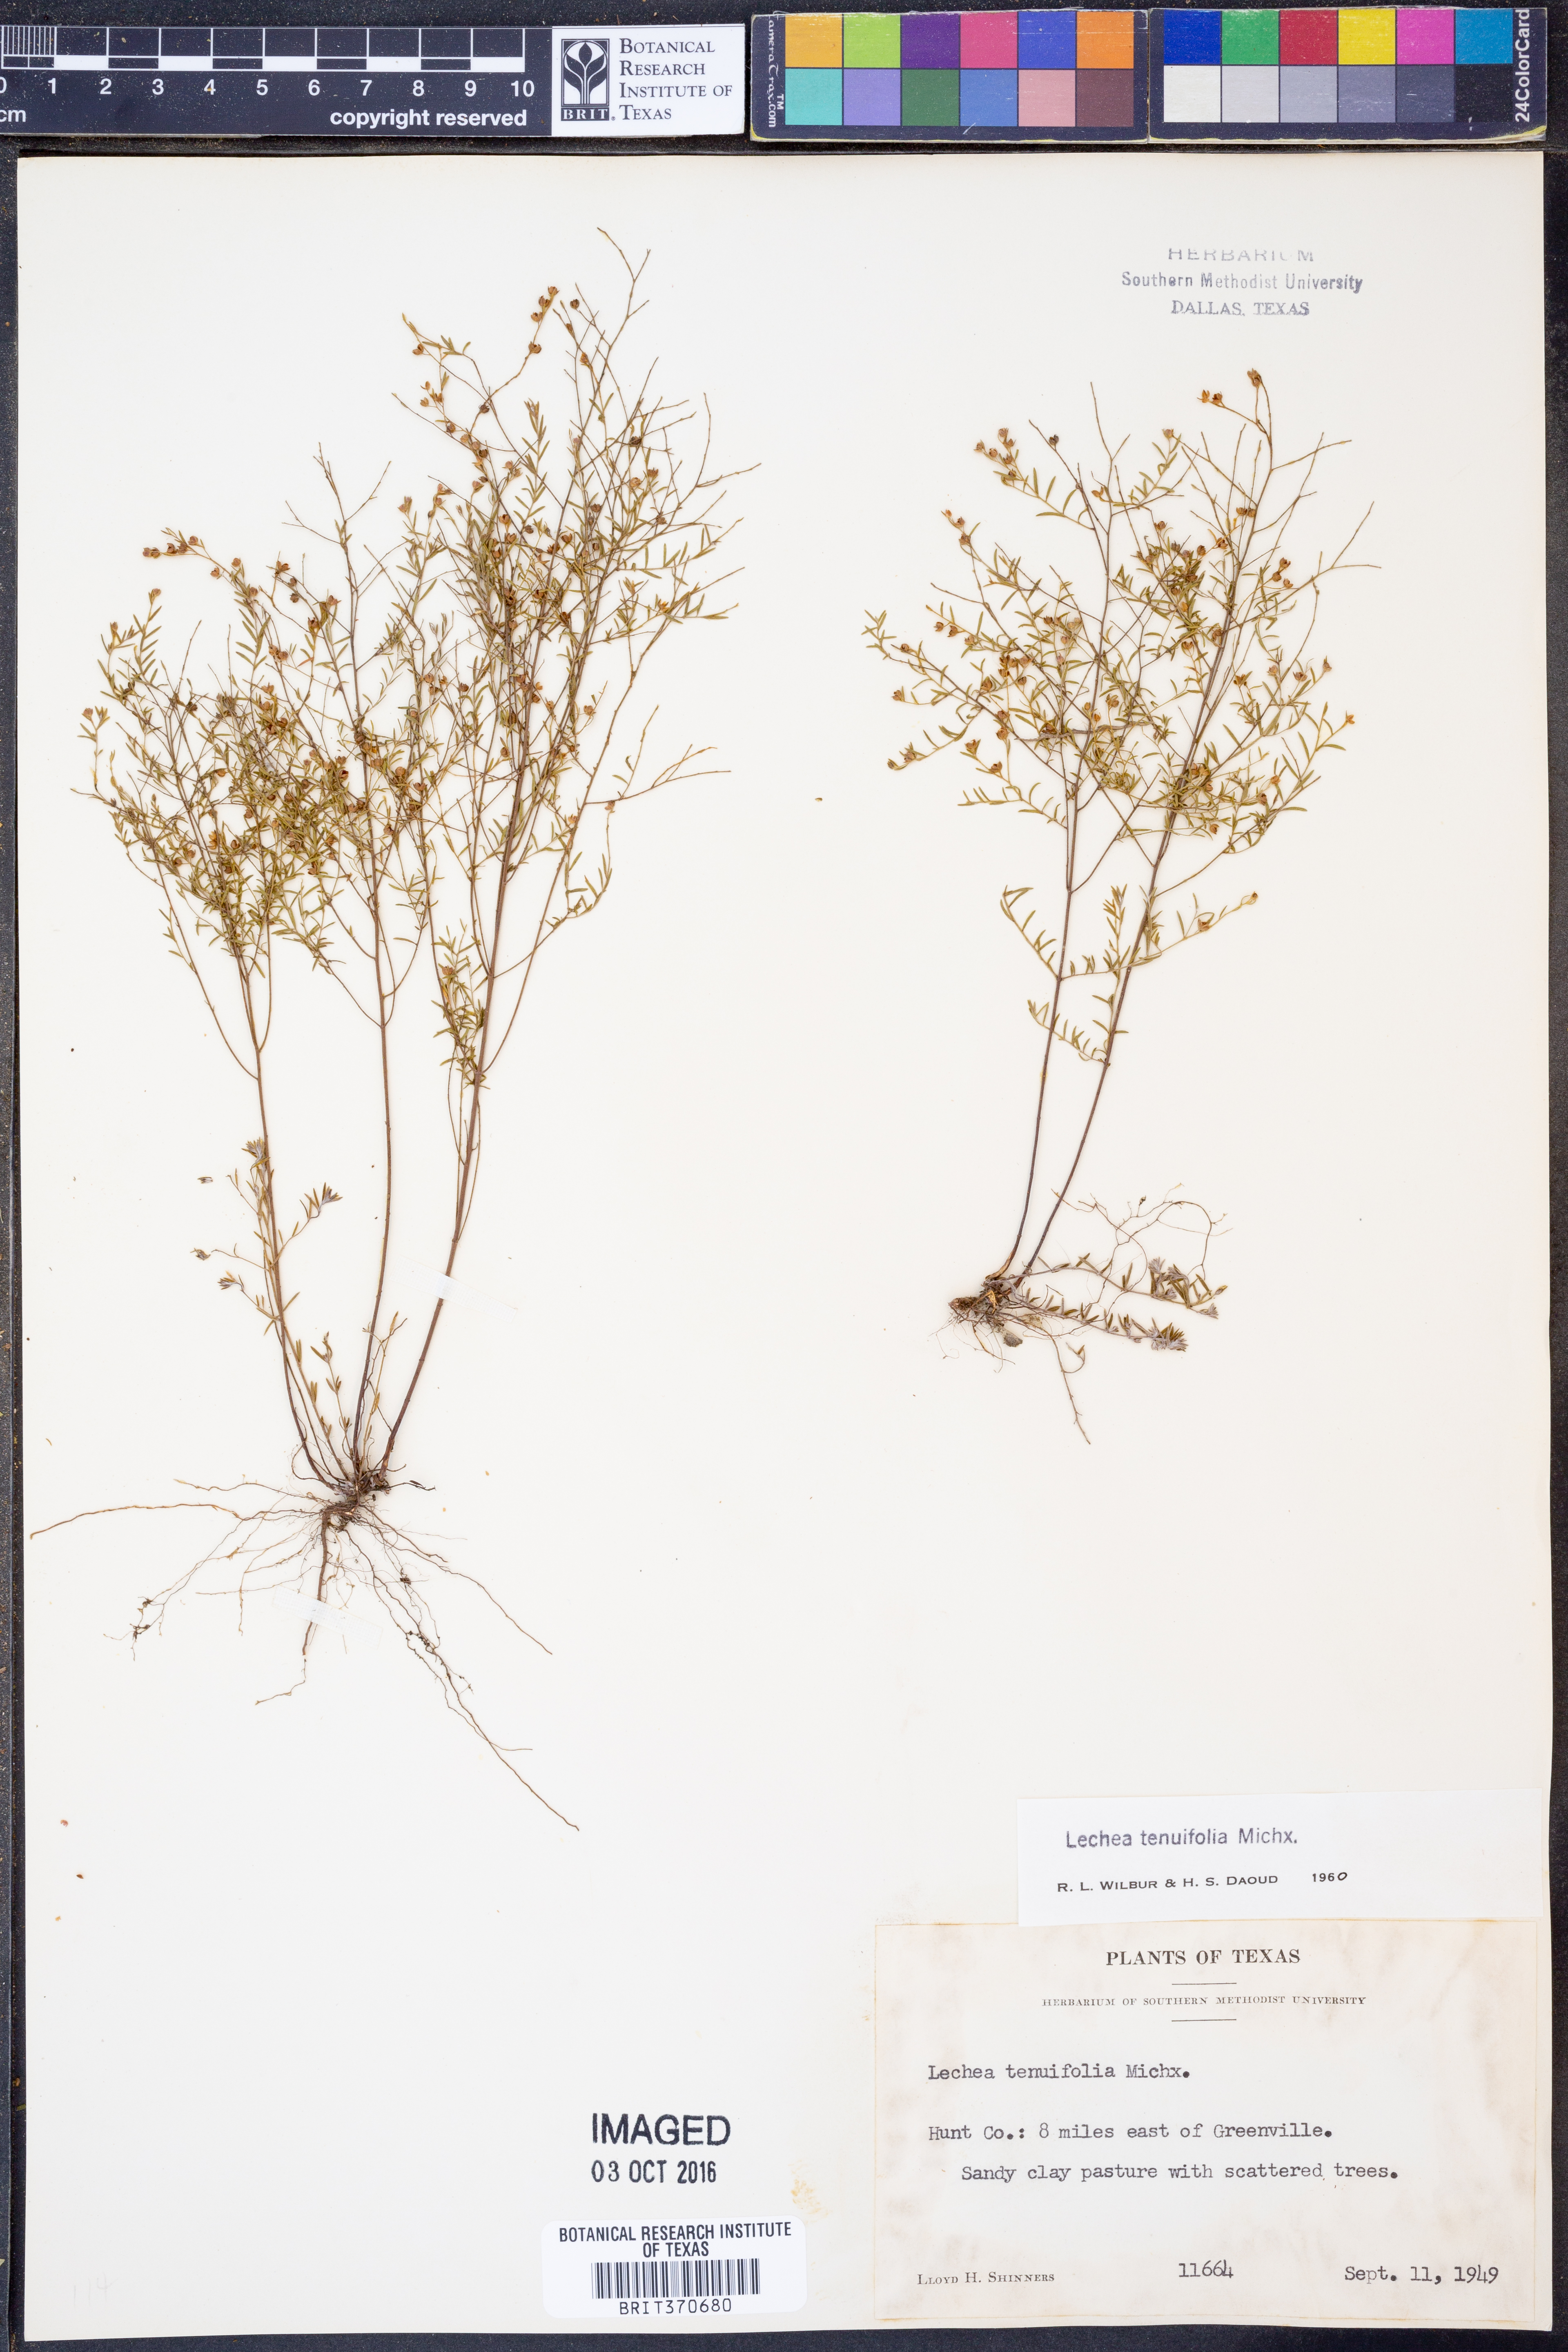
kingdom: Plantae
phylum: Tracheophyta
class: Magnoliopsida
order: Malvales
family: Cistaceae
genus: Lechea
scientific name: Lechea tenuifolia
